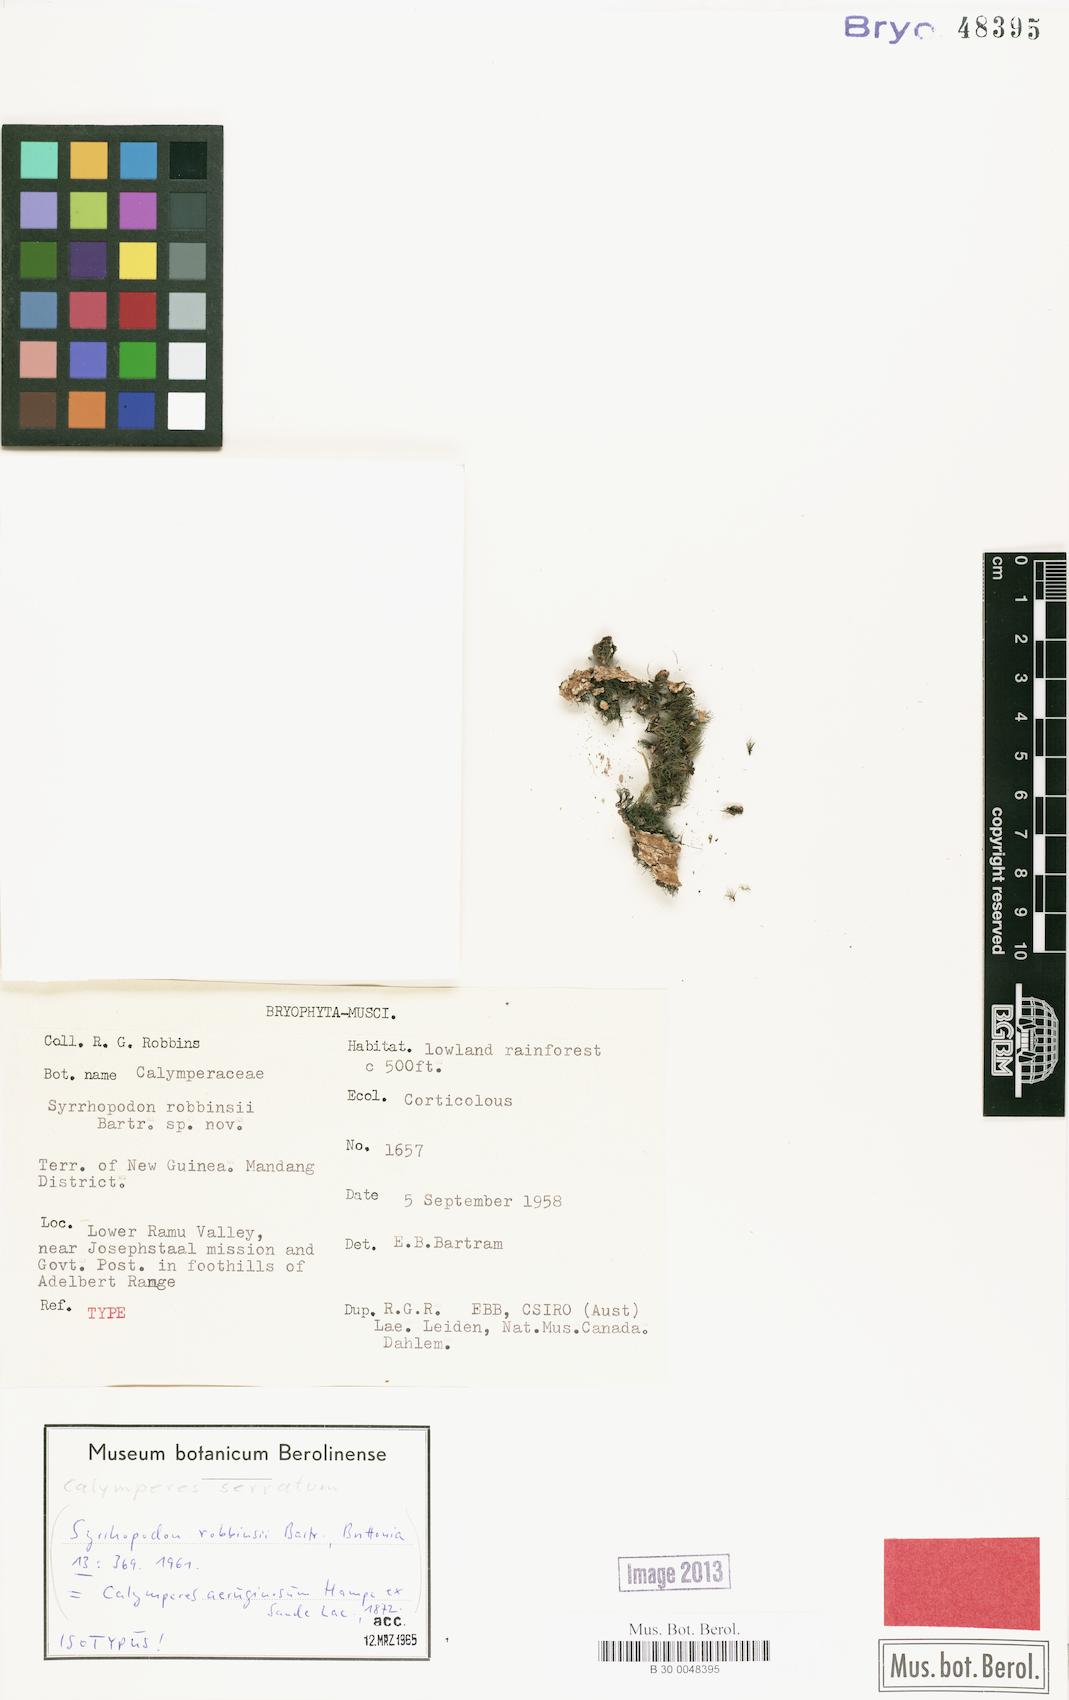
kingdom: Plantae
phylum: Bryophyta
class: Bryopsida
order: Dicranales
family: Calymperaceae
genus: Calymperes
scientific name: Calymperes aeruginosum
